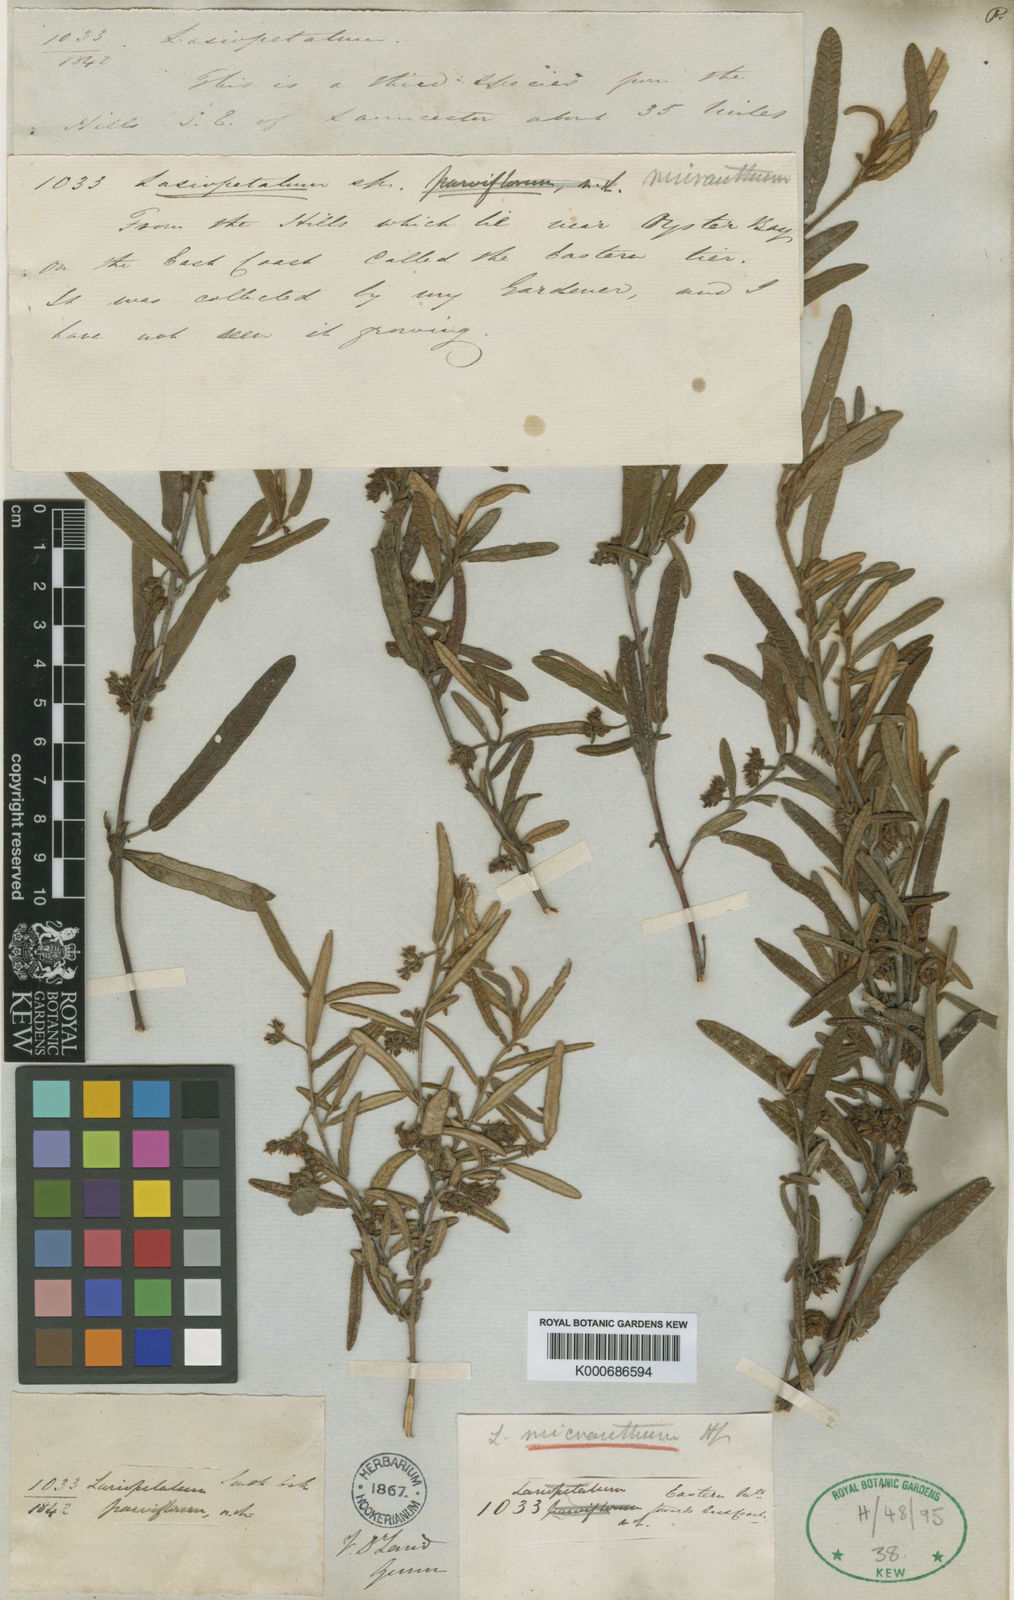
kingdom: Plantae
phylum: Tracheophyta
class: Magnoliopsida
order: Malvales
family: Malvaceae
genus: Lasiopetalum
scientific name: Lasiopetalum micranthum
